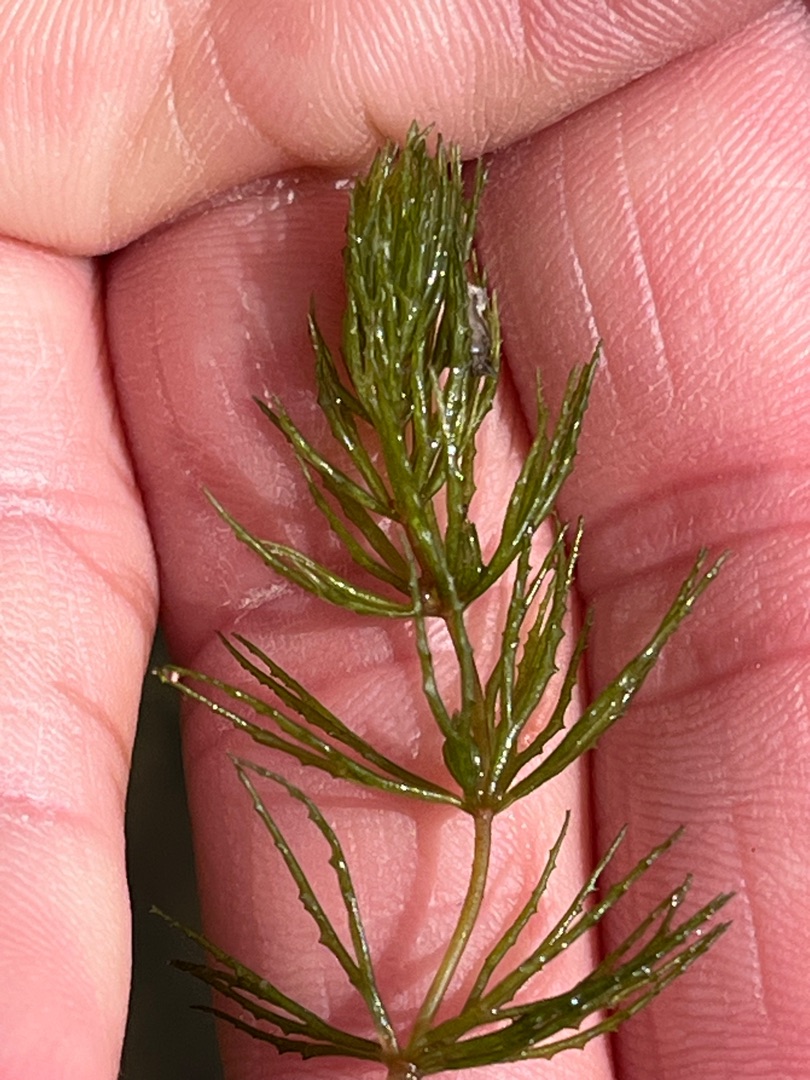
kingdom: Plantae
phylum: Tracheophyta
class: Magnoliopsida
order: Ceratophyllales
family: Ceratophyllaceae
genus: Ceratophyllum
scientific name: Ceratophyllum demersum
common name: Tornfrøet hornblad
